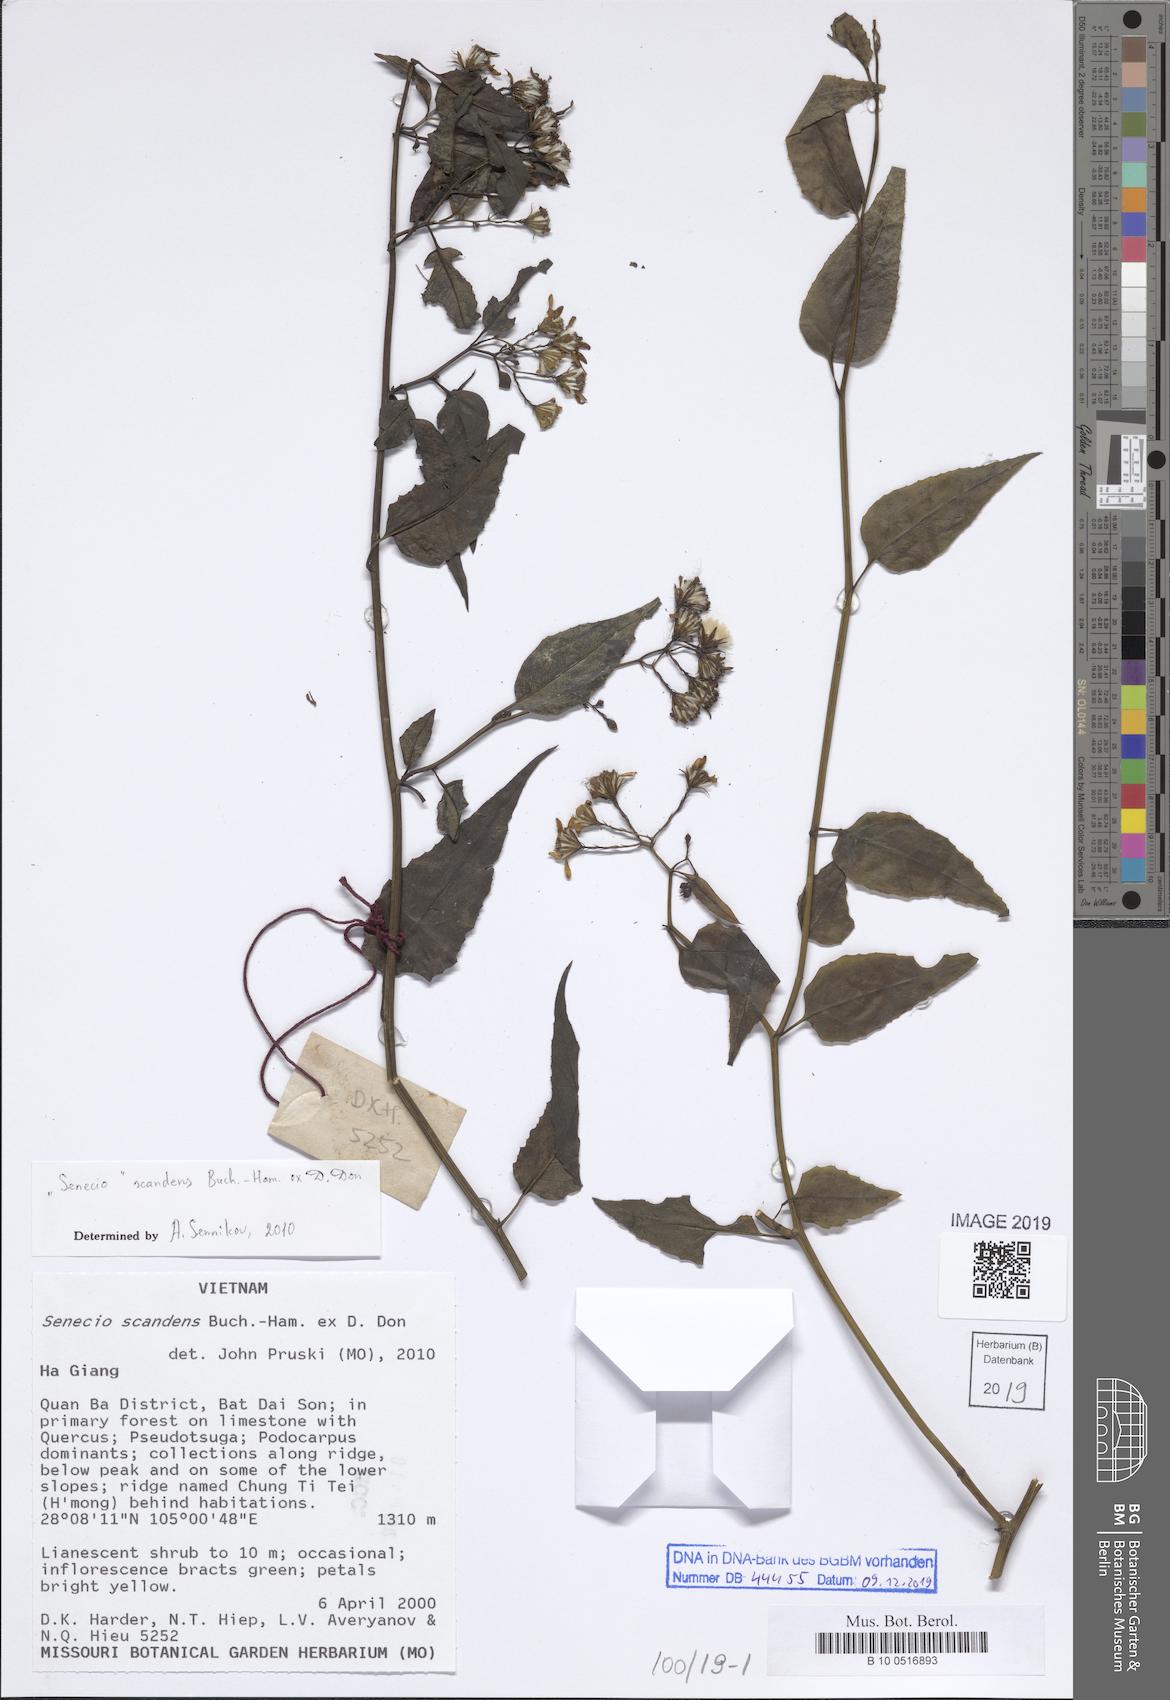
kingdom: Plantae
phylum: Tracheophyta
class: Magnoliopsida
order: Asterales
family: Asteraceae
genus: Senecio
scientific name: Senecio scandens
